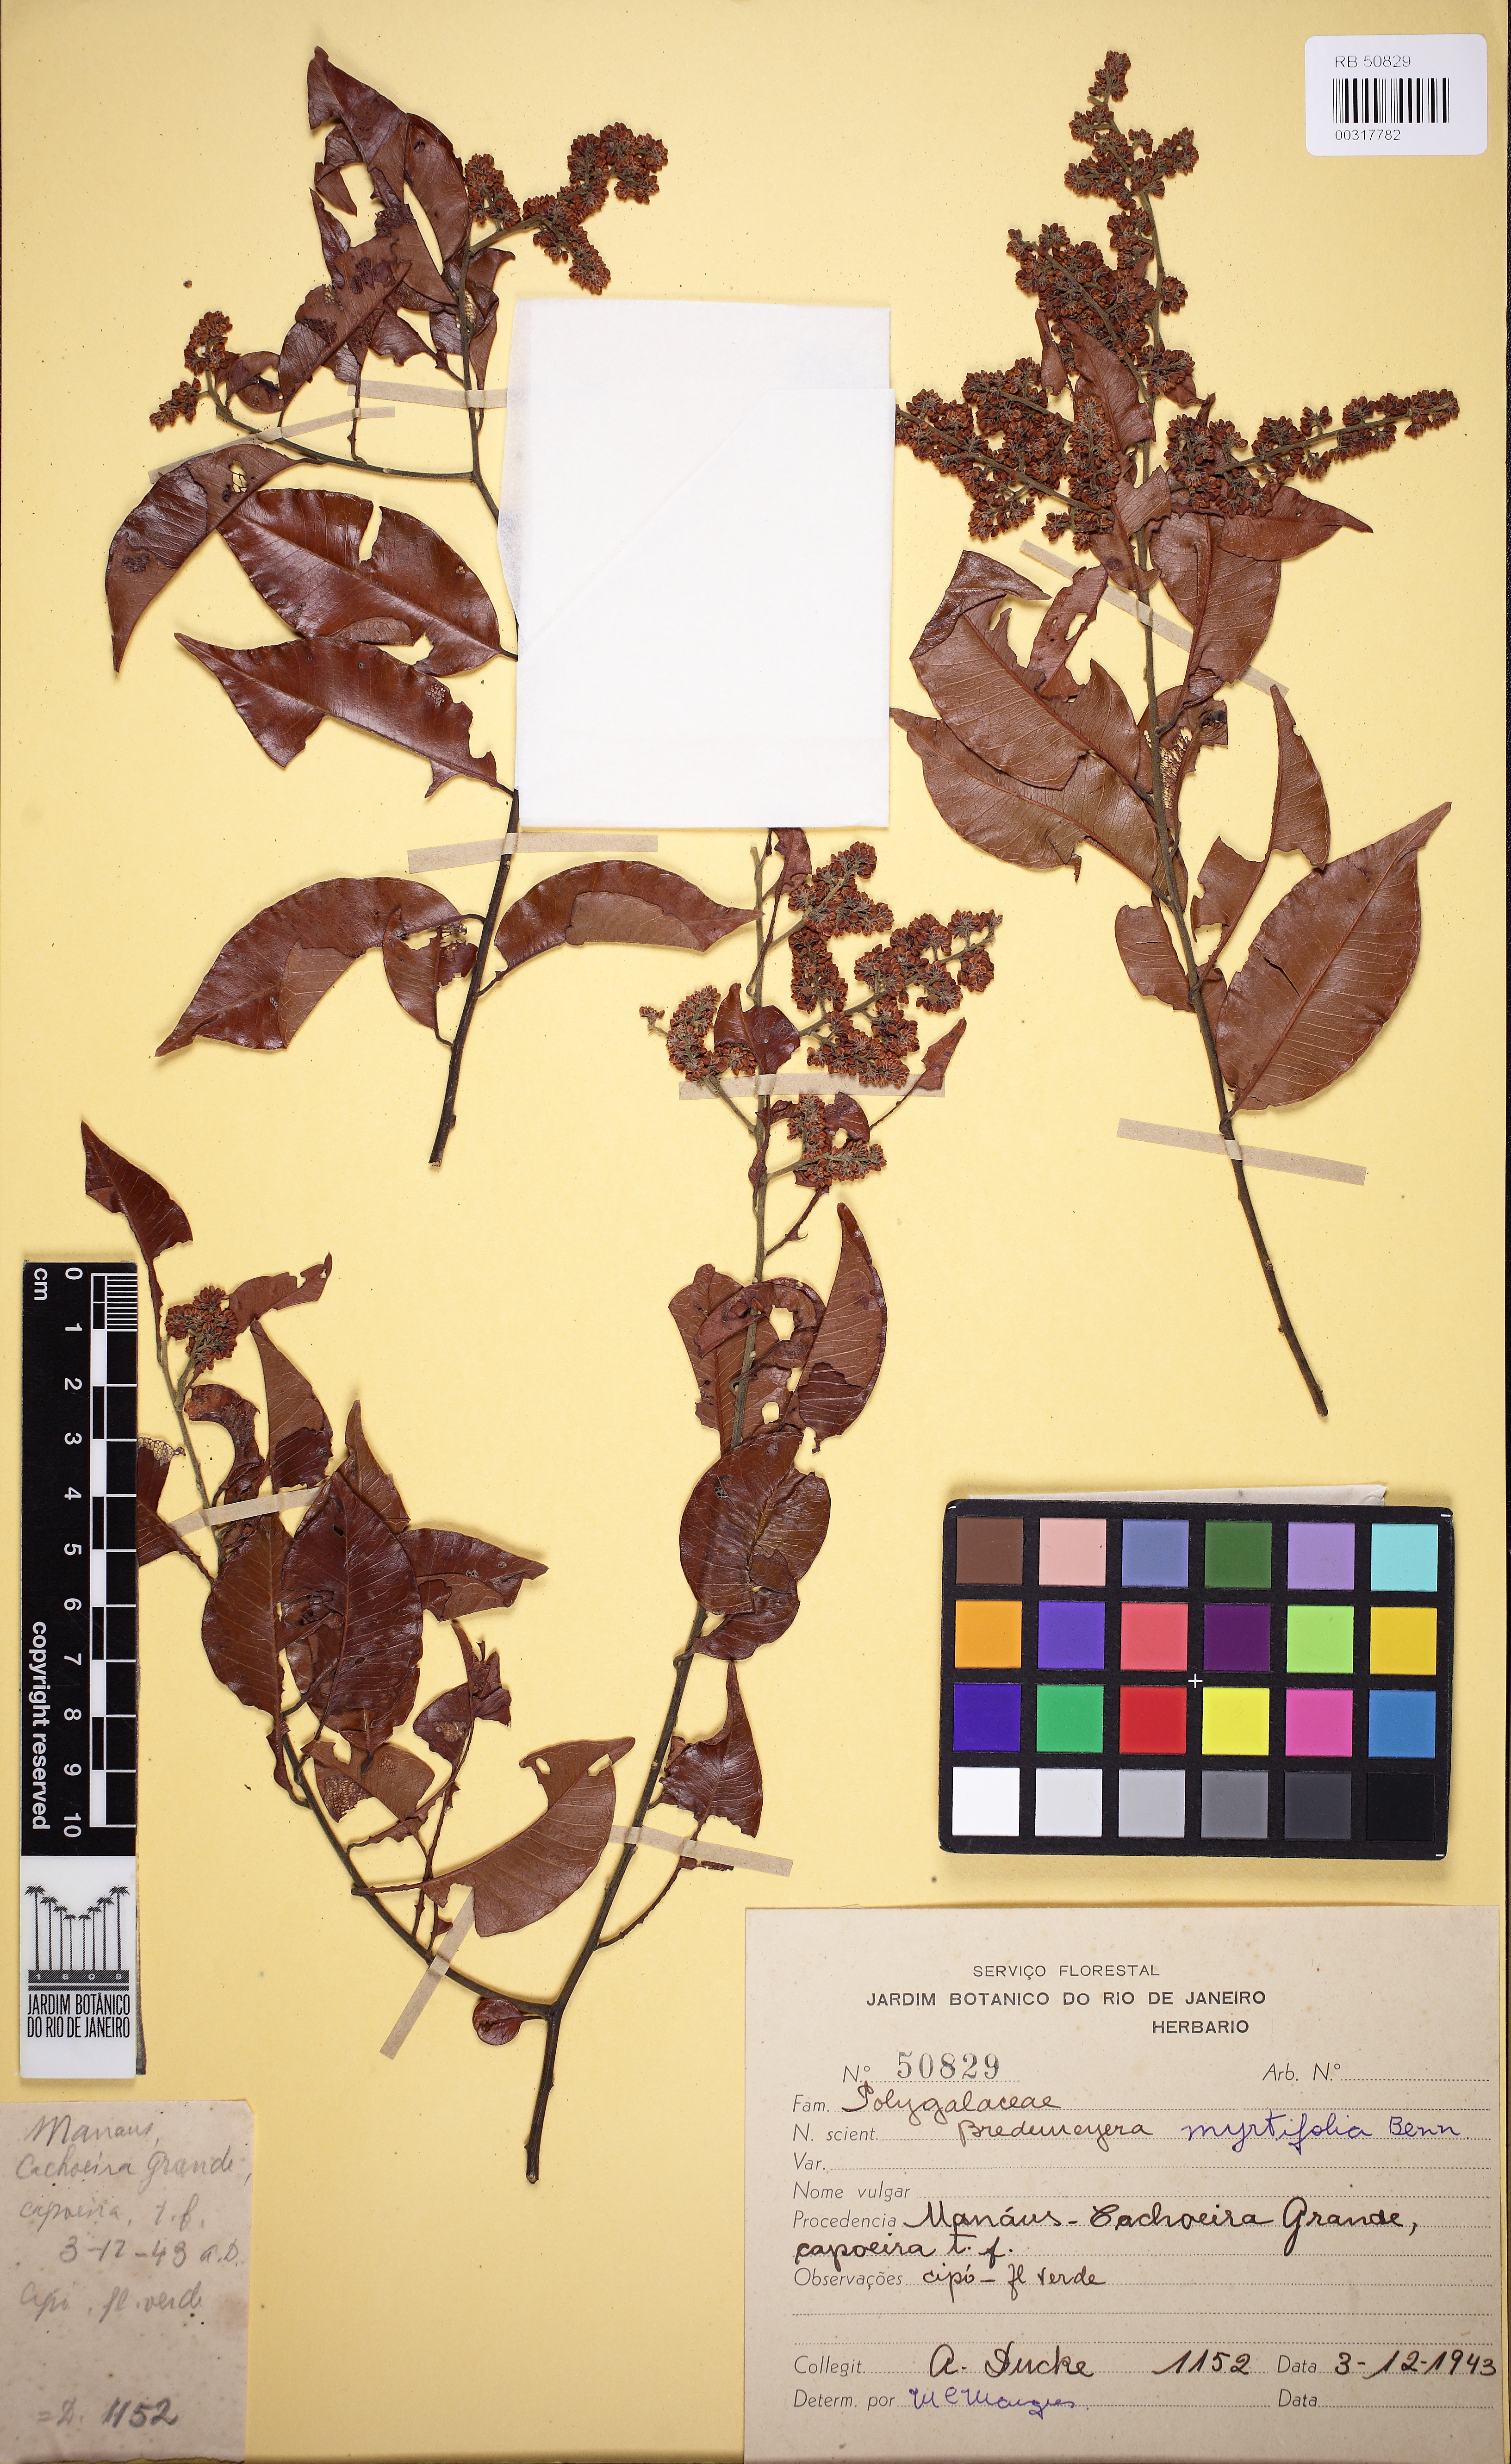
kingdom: Plantae
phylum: Tracheophyta
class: Magnoliopsida
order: Fabales
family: Polygalaceae
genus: Bredemeyera
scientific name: Bredemeyera myrtifolia
